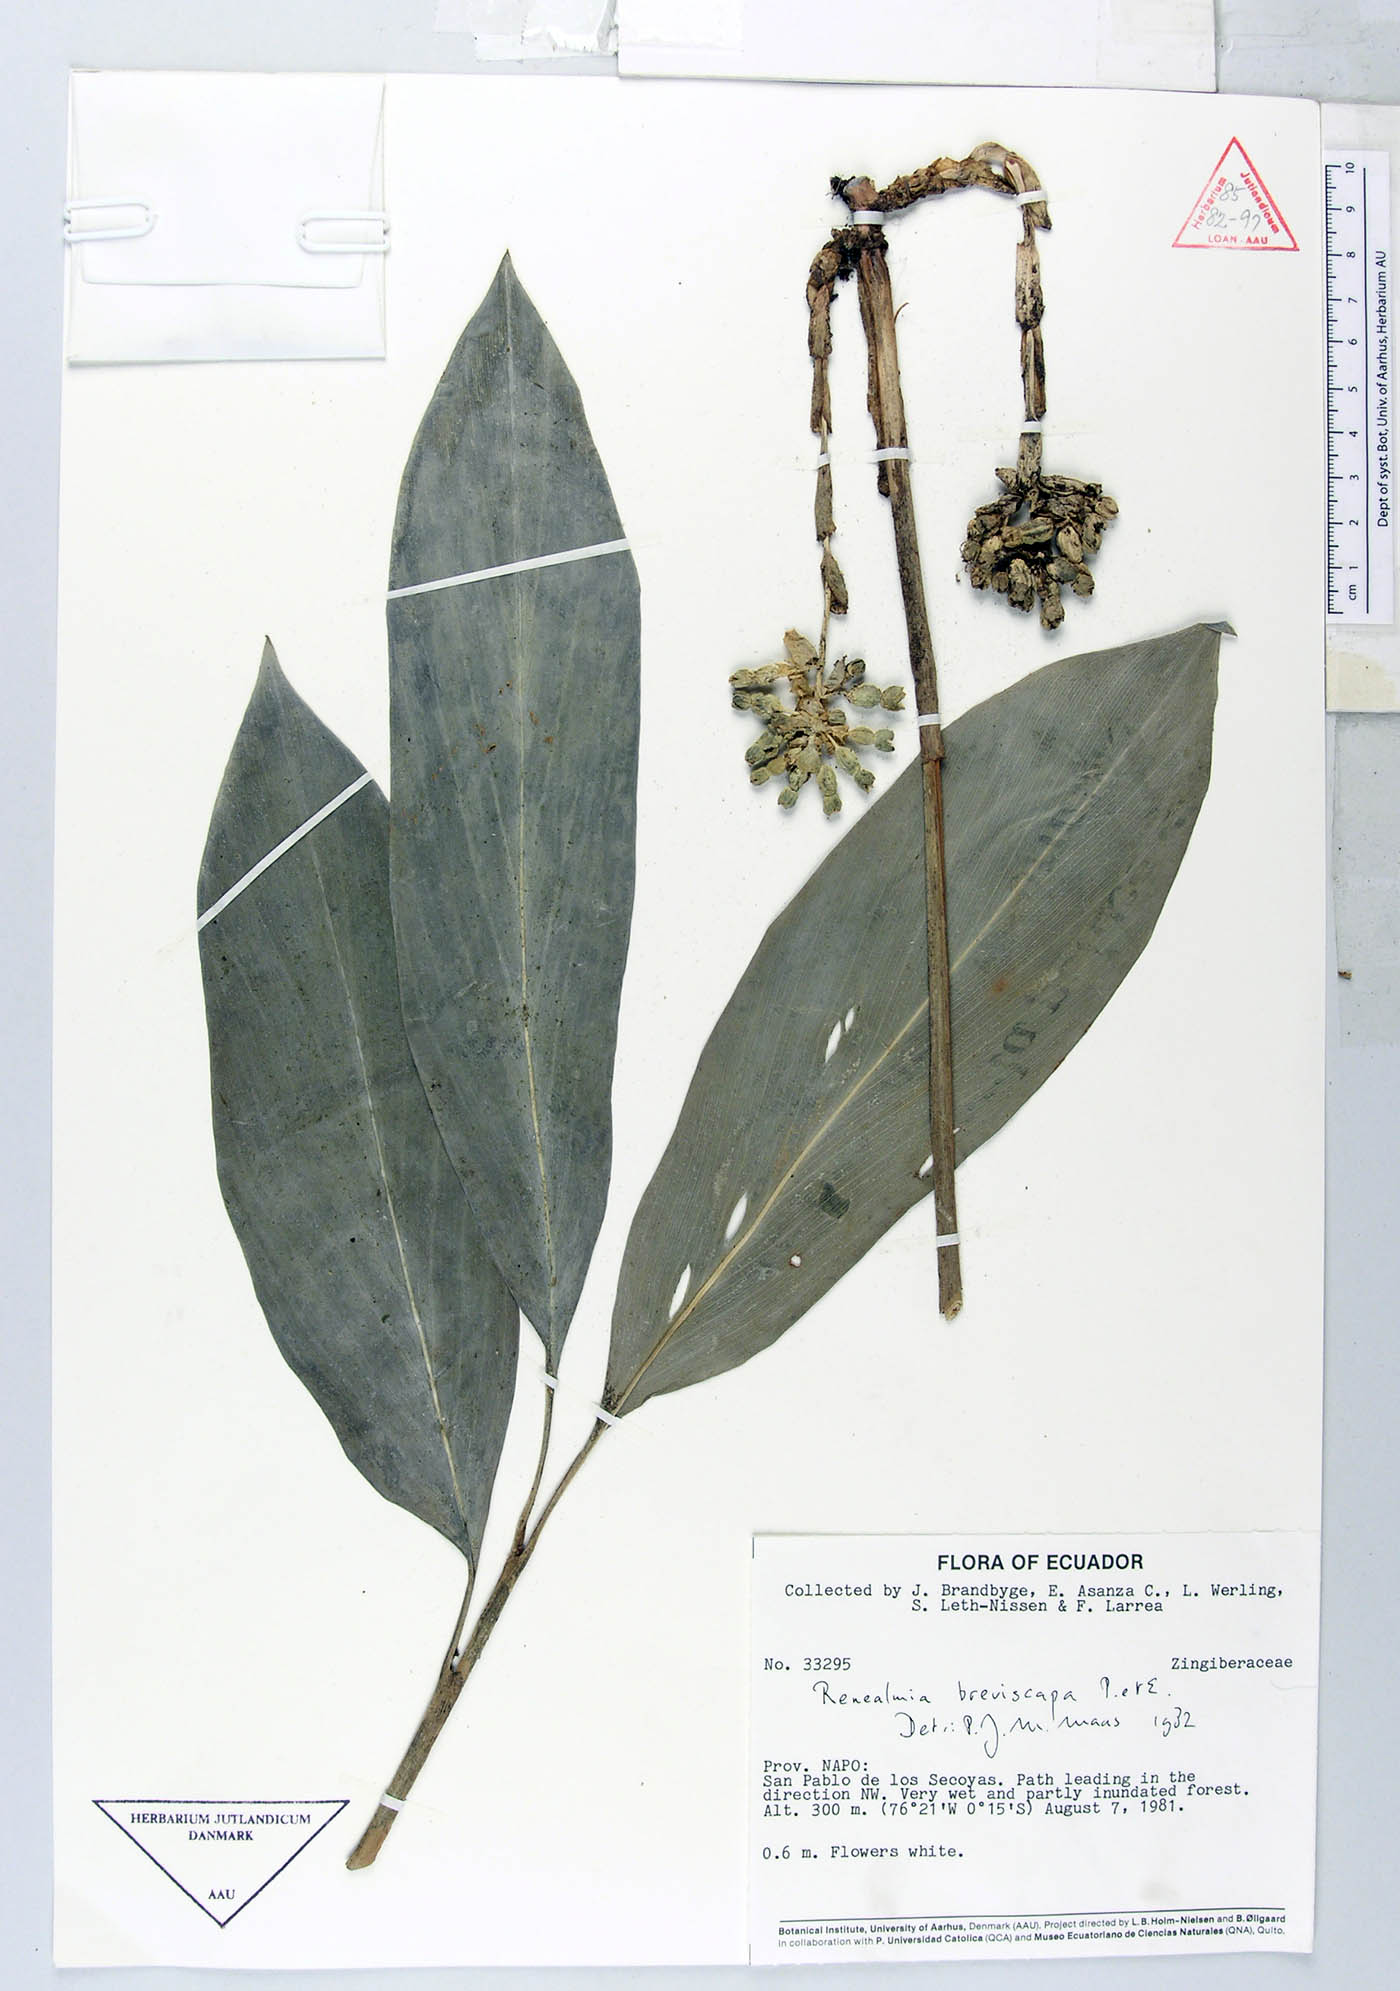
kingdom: Plantae
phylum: Tracheophyta
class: Liliopsida
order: Zingiberales
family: Zingiberaceae
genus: Renealmia
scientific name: Renealmia breviscapa
